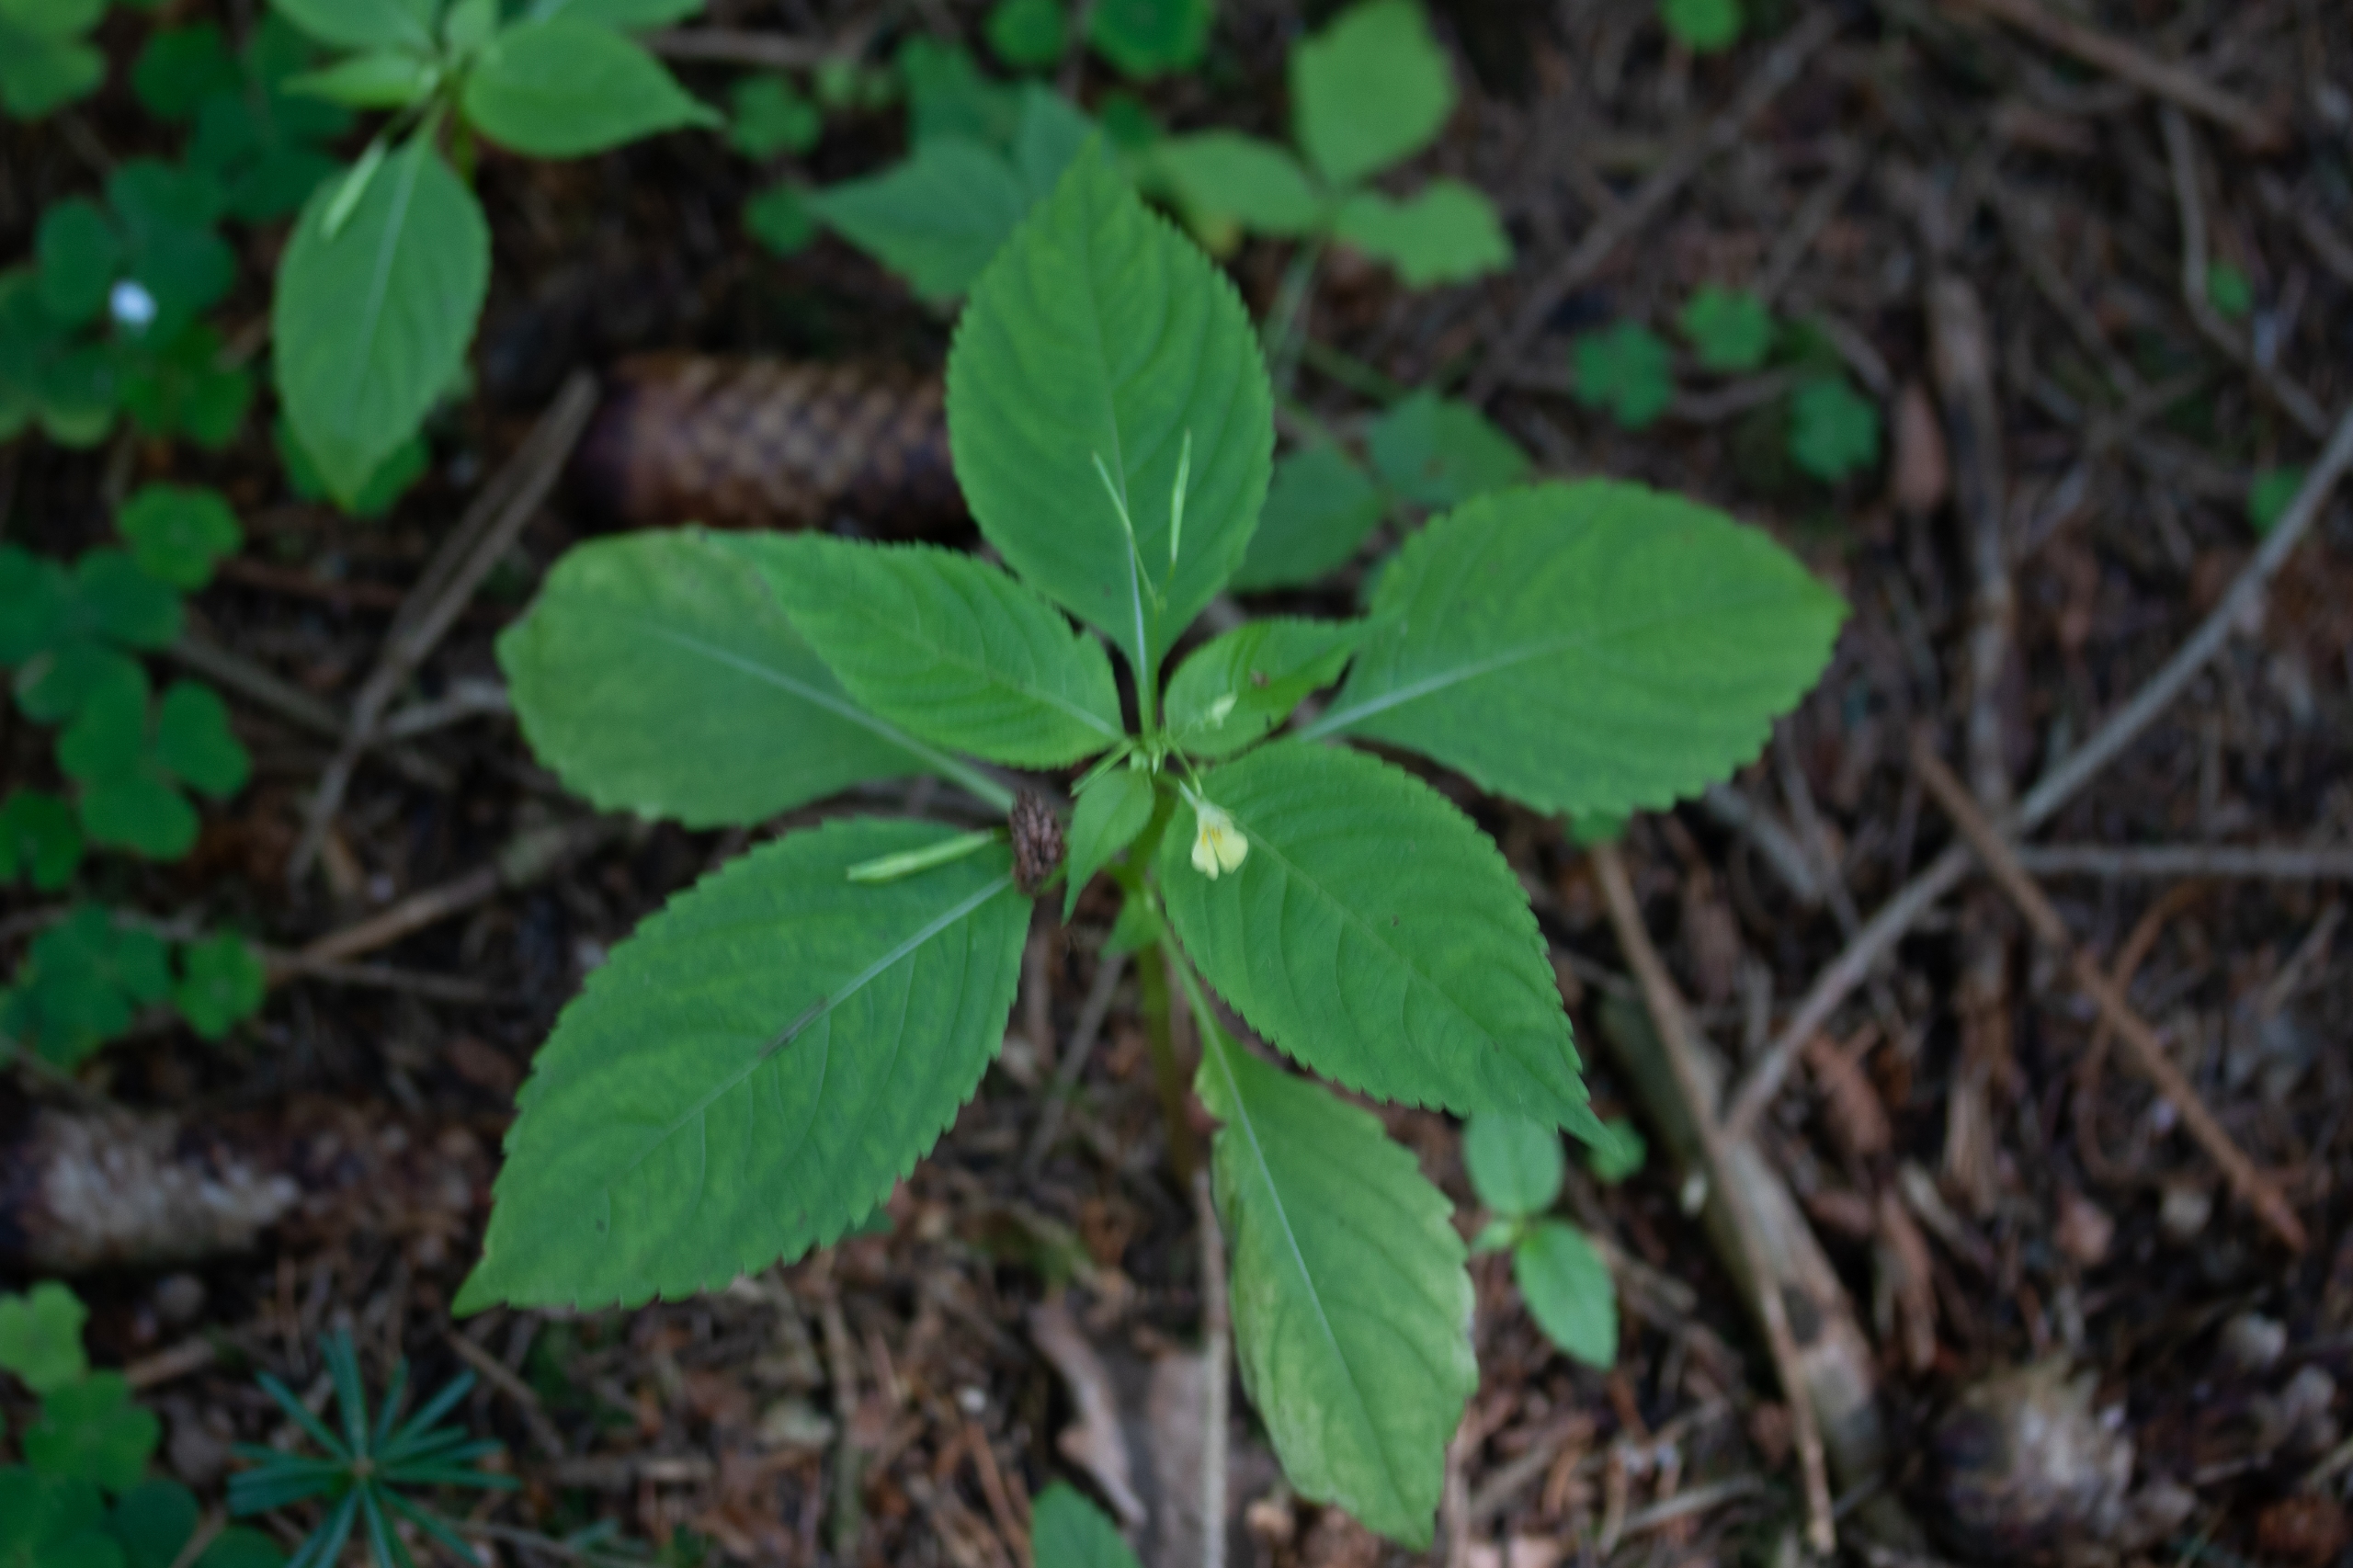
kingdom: Plantae
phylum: Tracheophyta
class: Magnoliopsida
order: Ericales
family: Balsaminaceae
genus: Impatiens
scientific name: Impatiens parviflora
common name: Småblomstret balsamin
